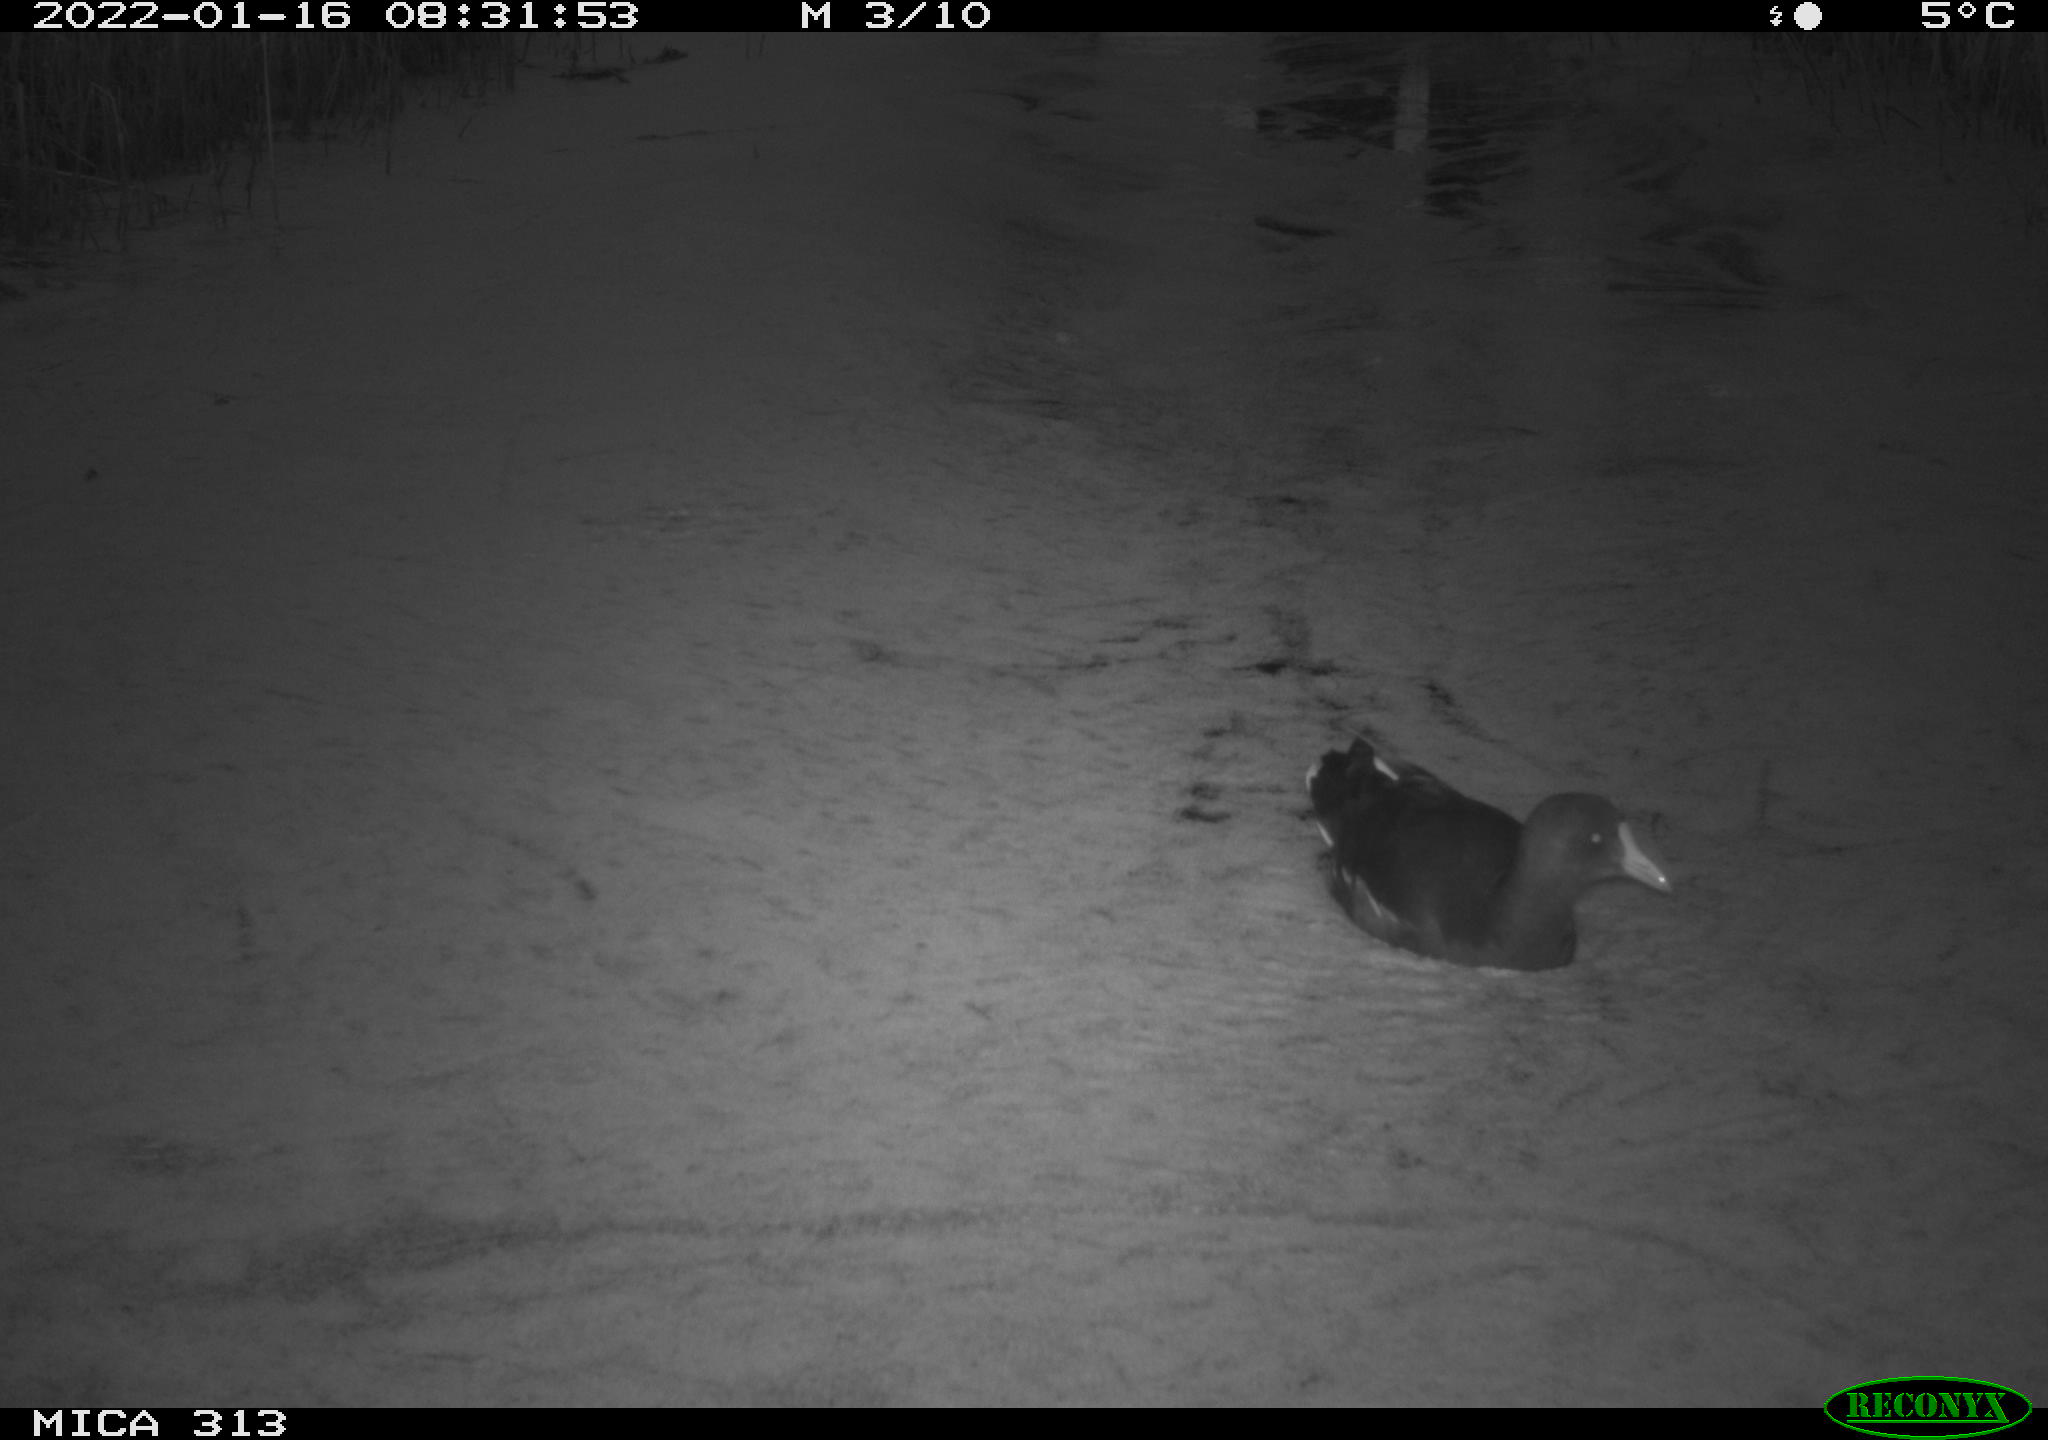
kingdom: Animalia
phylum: Chordata
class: Aves
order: Gruiformes
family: Rallidae
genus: Gallinula
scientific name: Gallinula chloropus
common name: Common moorhen
